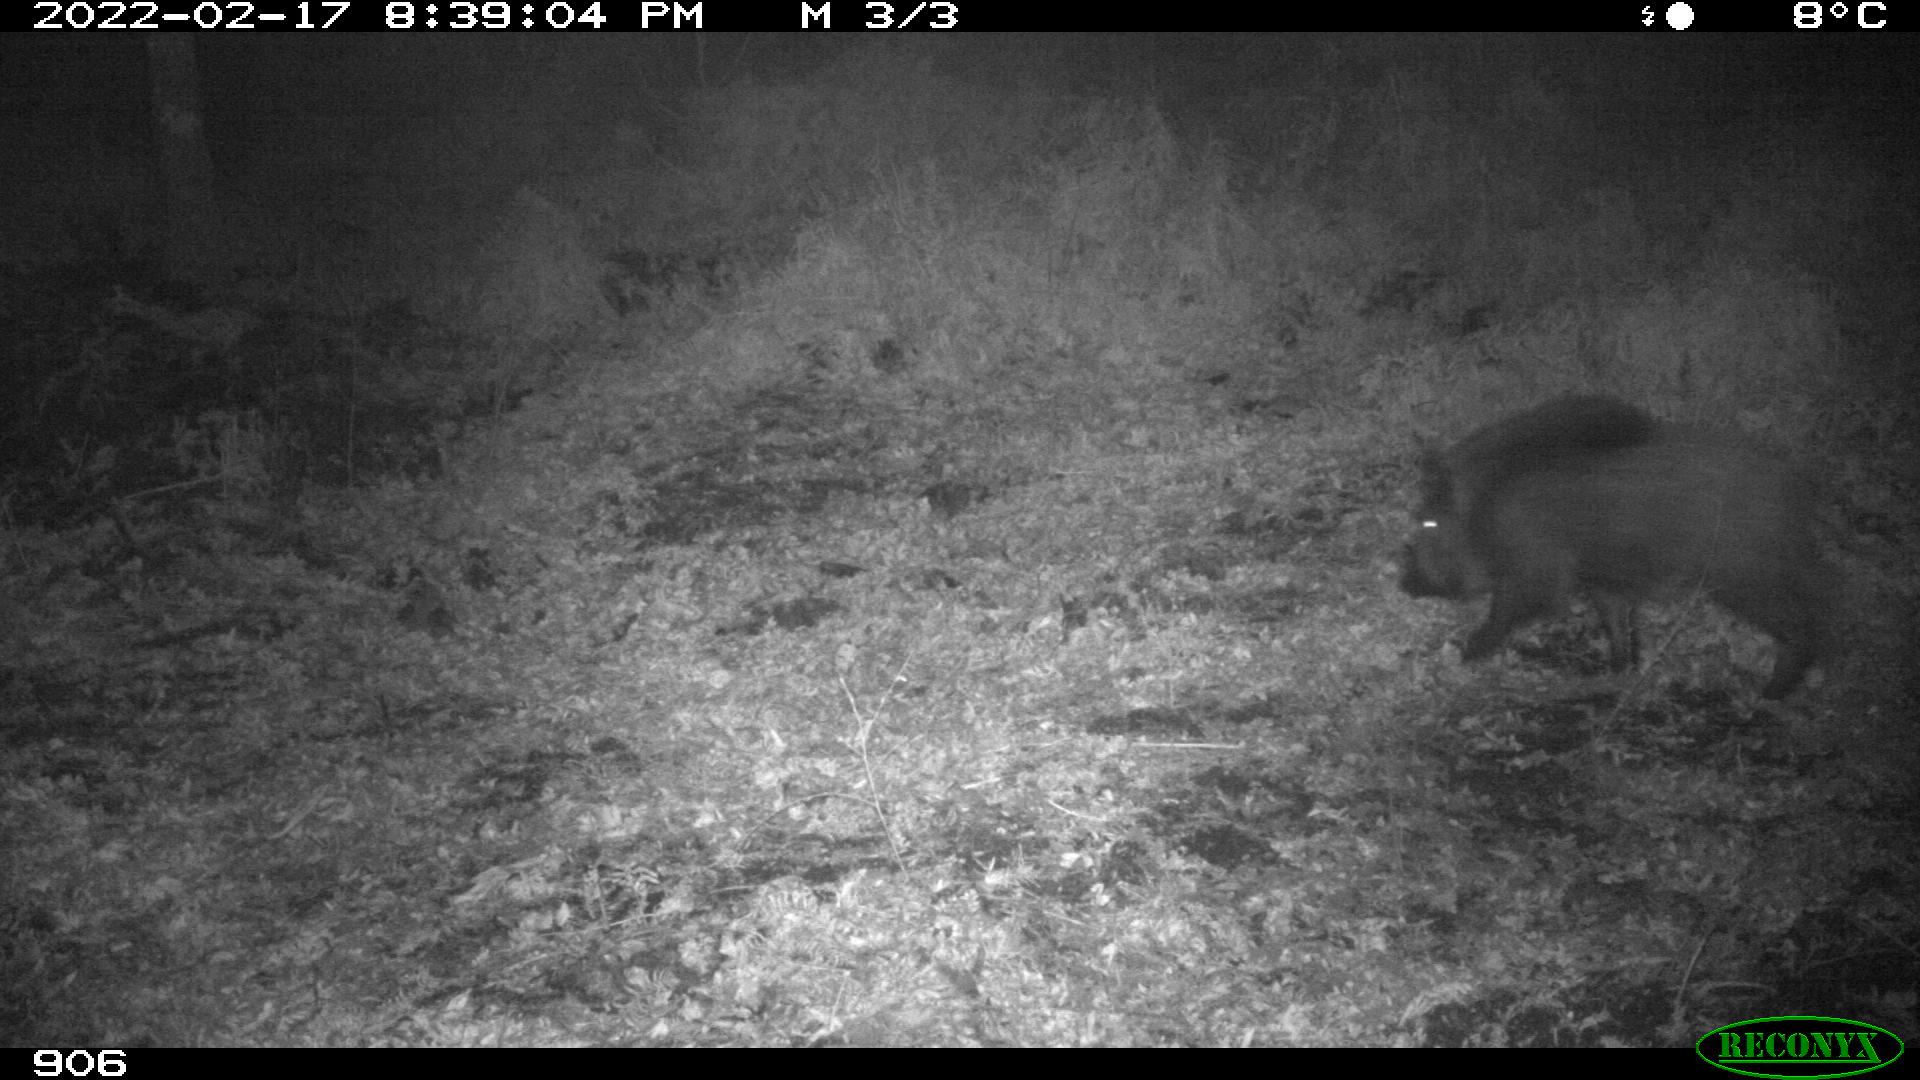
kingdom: Animalia
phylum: Chordata
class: Mammalia
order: Artiodactyla
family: Suidae
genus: Sus
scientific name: Sus scrofa
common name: Wild boar
